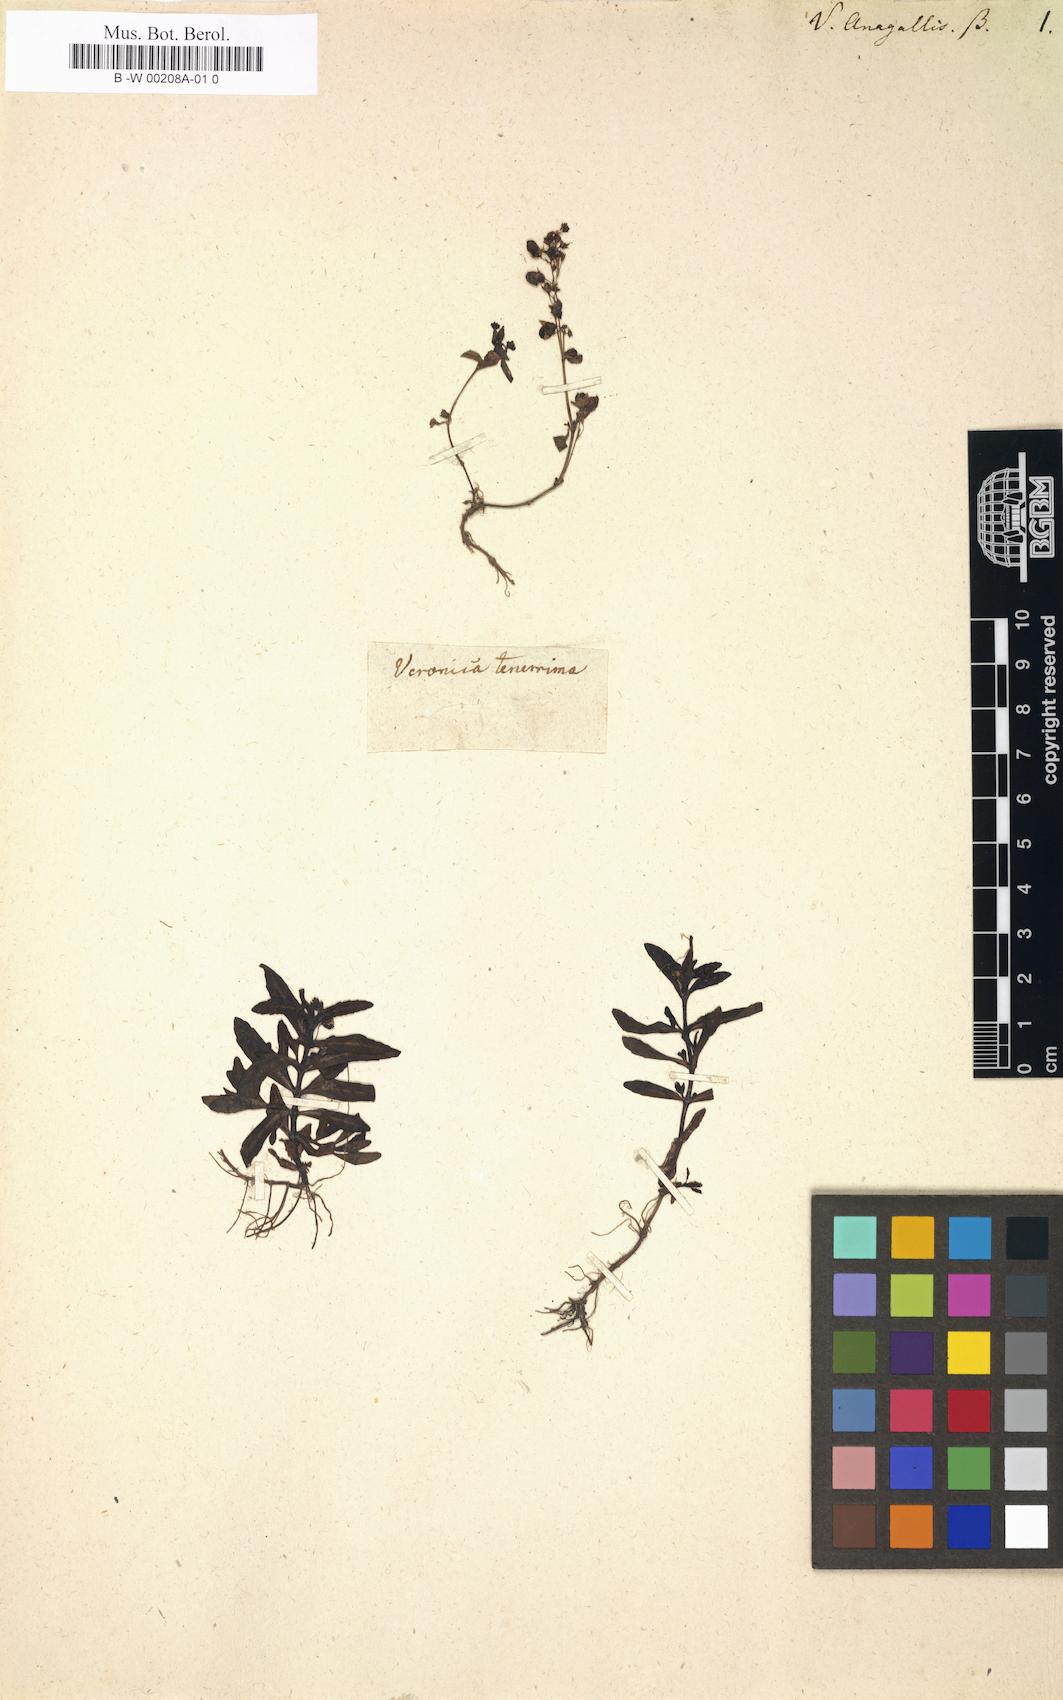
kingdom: Plantae
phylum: Tracheophyta
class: Magnoliopsida
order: Lamiales
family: Plantaginaceae
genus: Veronica
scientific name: Veronica anagallis
